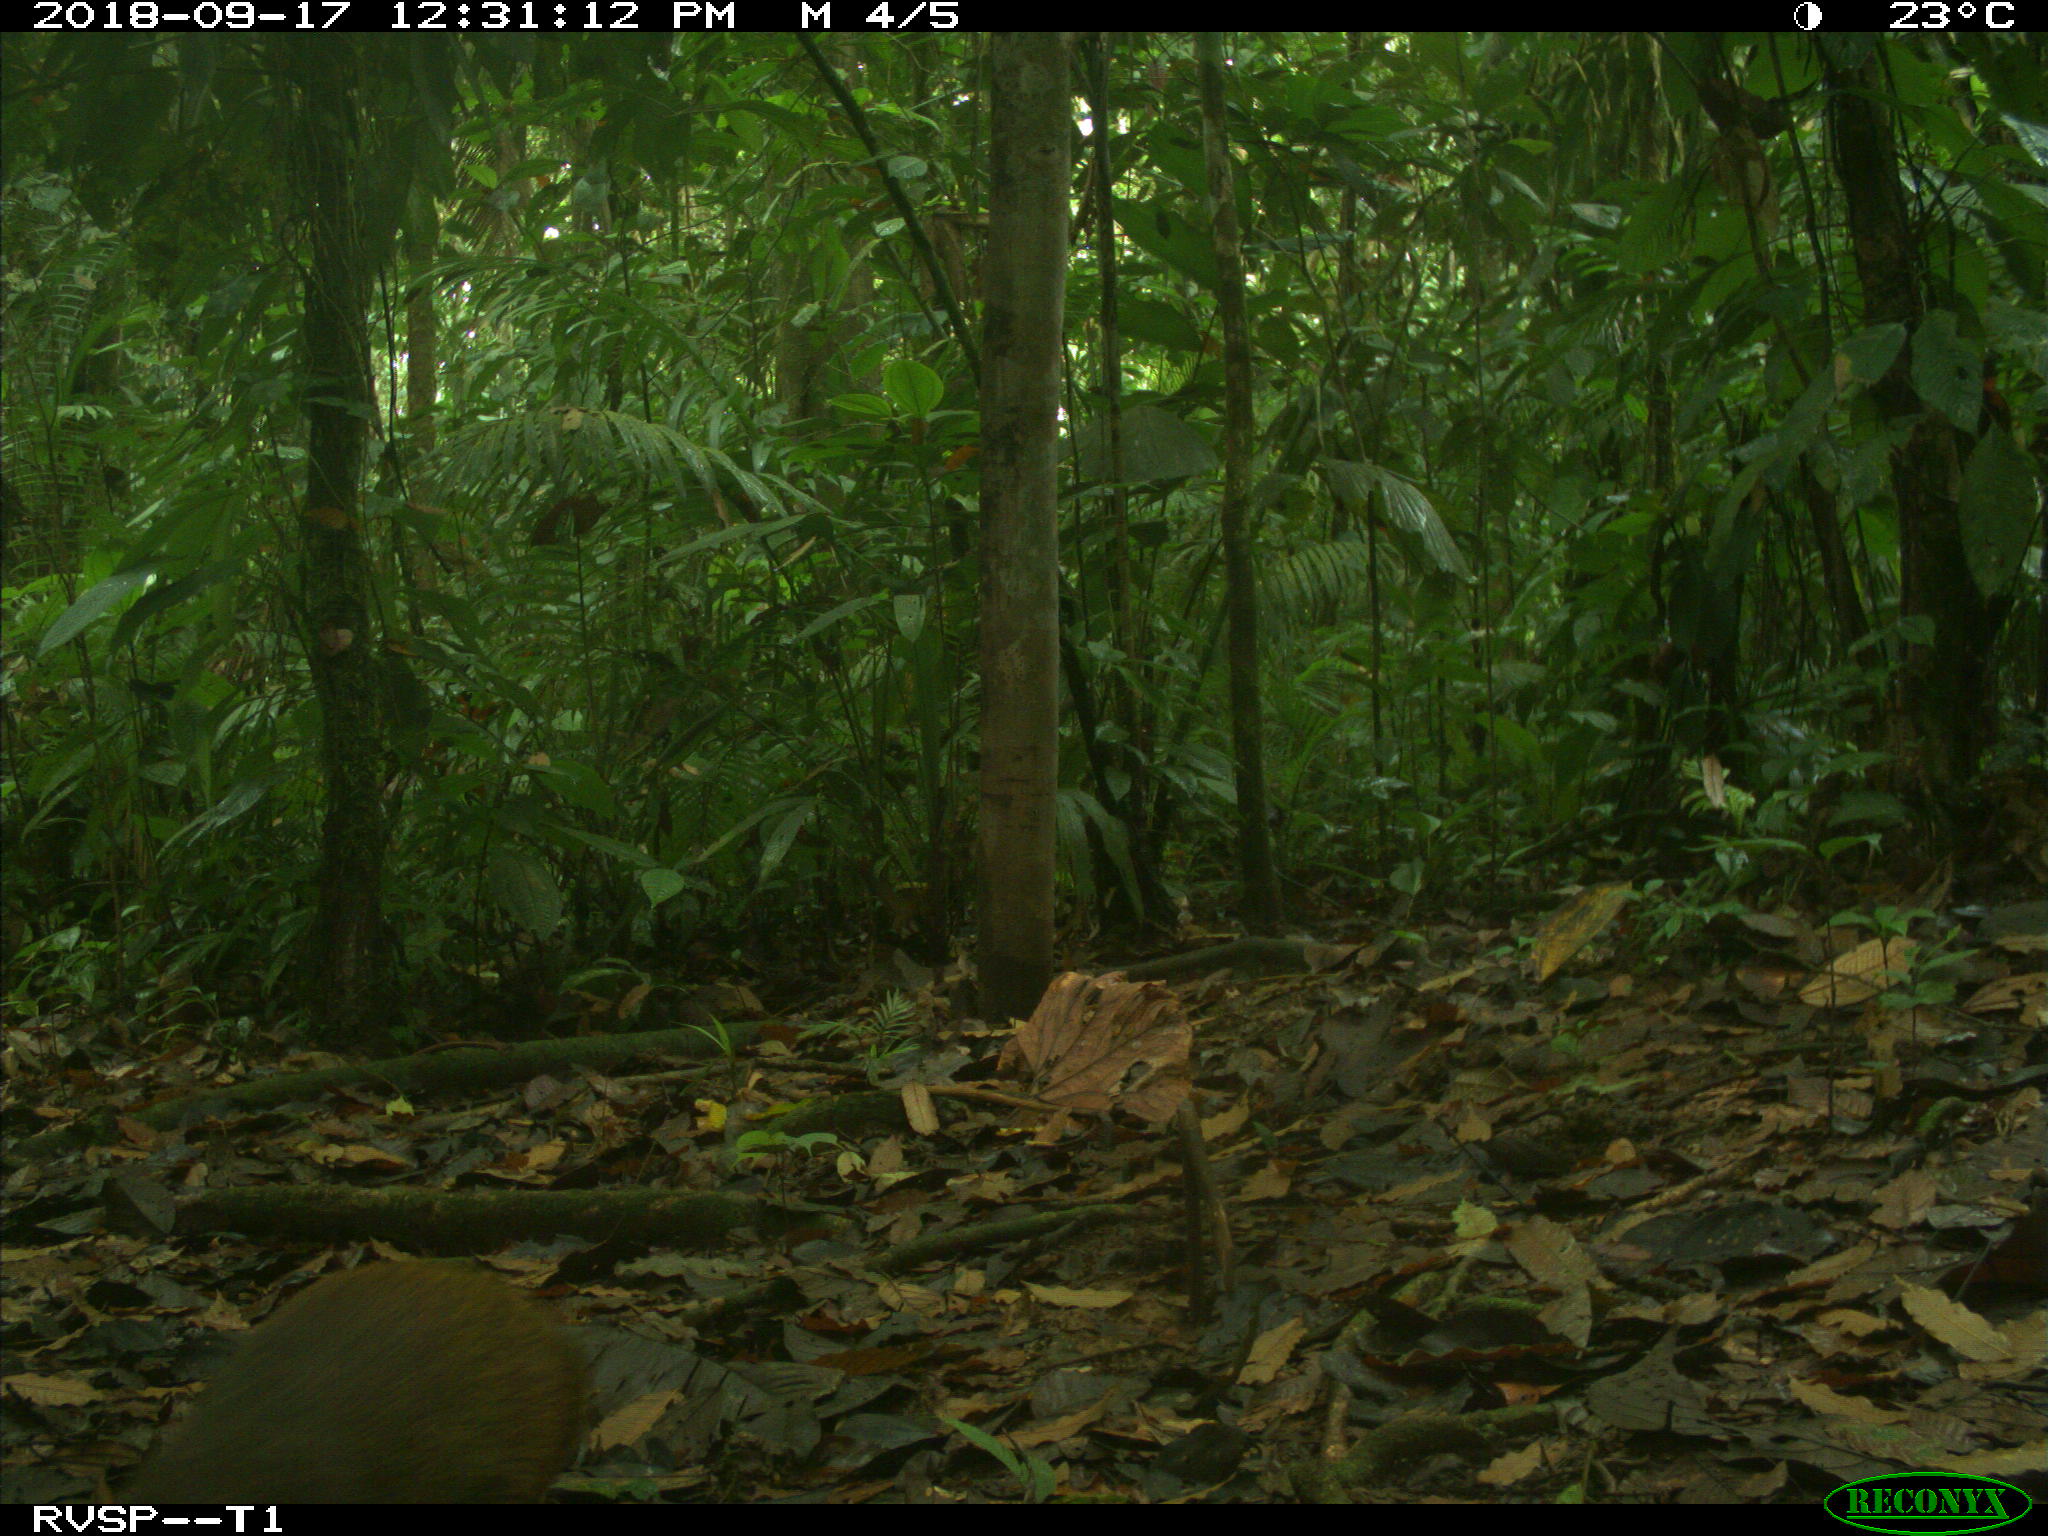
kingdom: Animalia
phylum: Chordata
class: Mammalia
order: Rodentia
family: Dasyproctidae
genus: Dasyprocta
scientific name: Dasyprocta punctata
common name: Central american agouti
